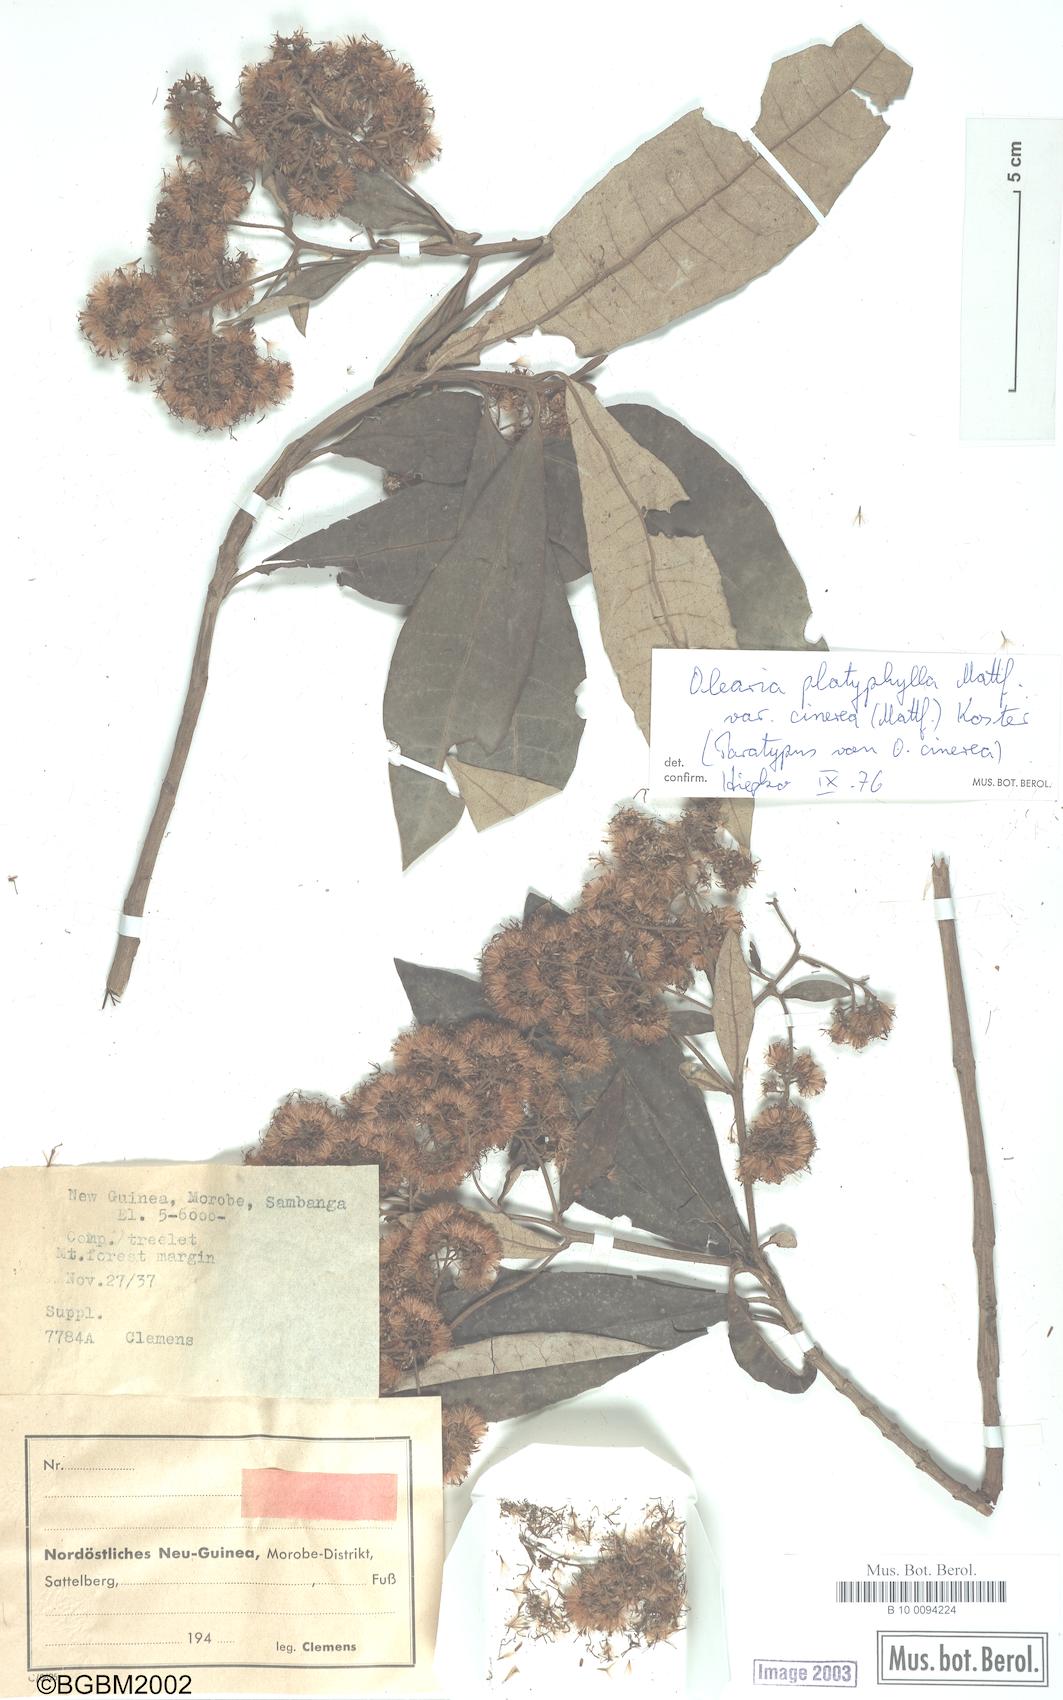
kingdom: Plantae
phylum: Tracheophyta
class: Magnoliopsida
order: Asterales
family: Asteraceae
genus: Olearia
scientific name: Olearia platyphylla
